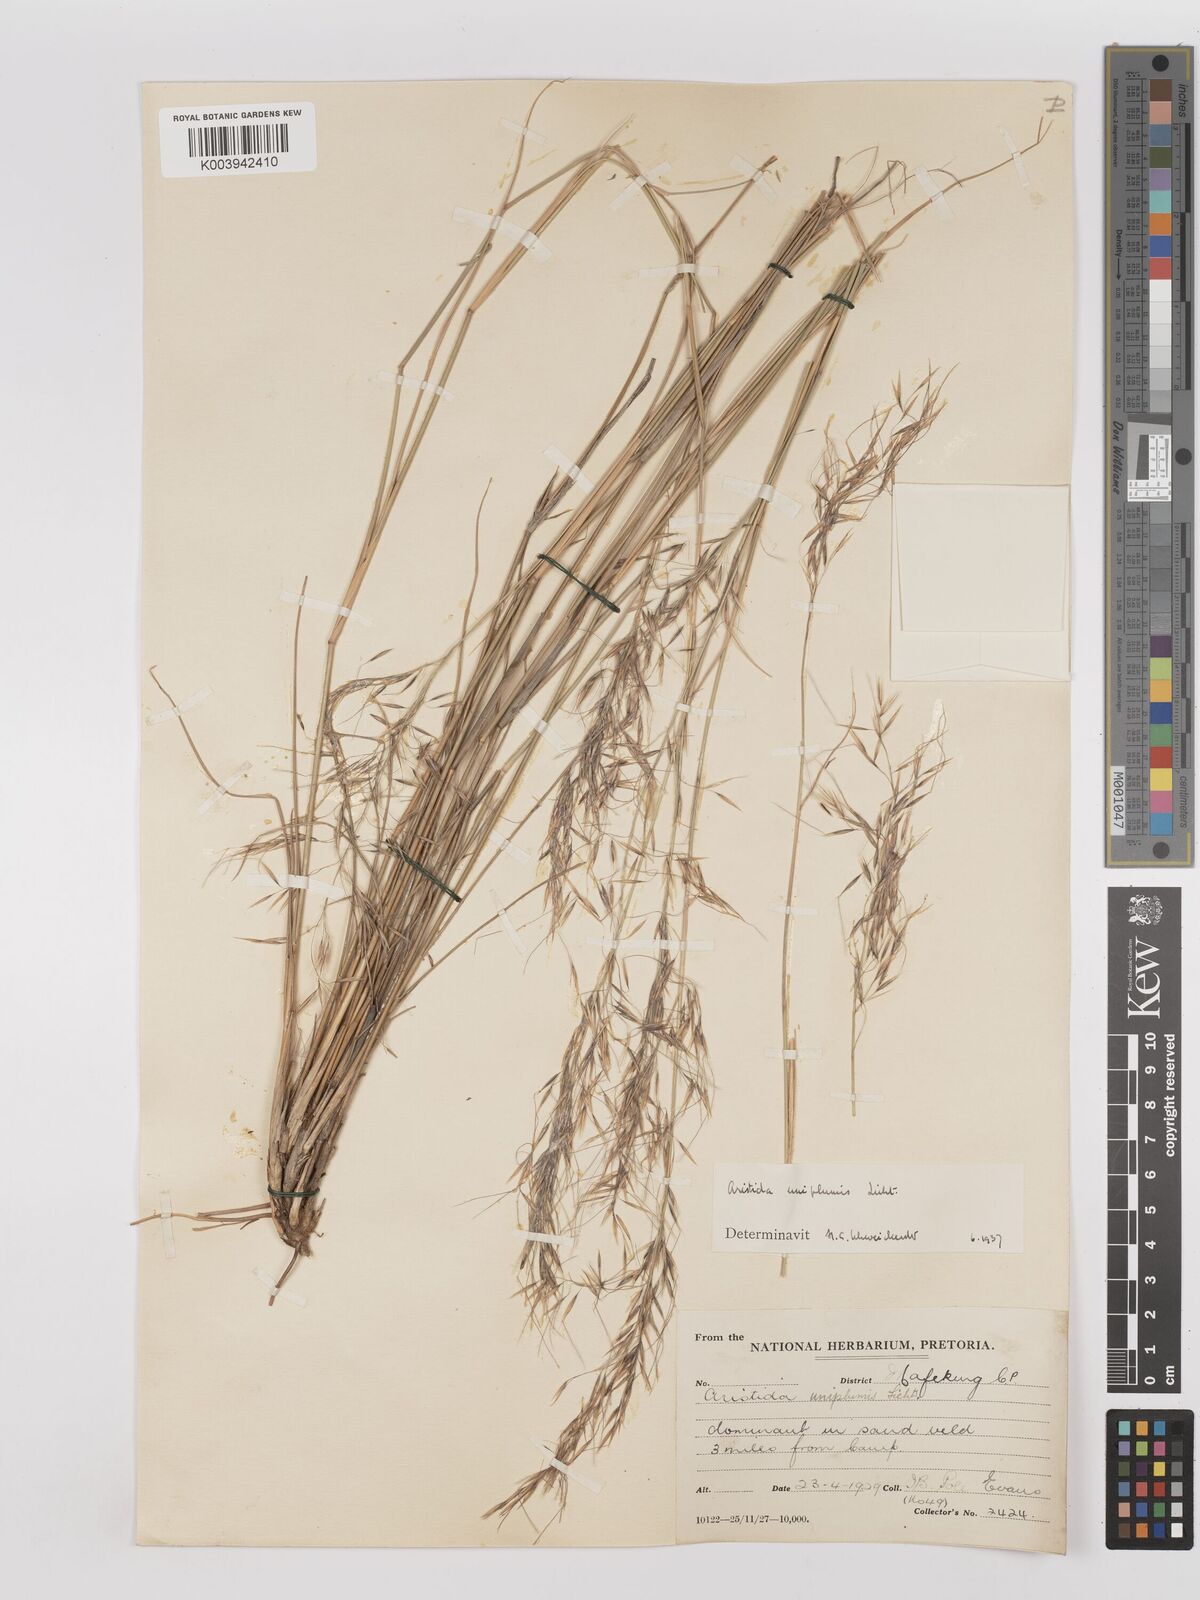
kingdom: Plantae
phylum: Tracheophyta
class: Liliopsida
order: Poales
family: Poaceae
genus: Stipagrostis
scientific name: Stipagrostis uniplumis
